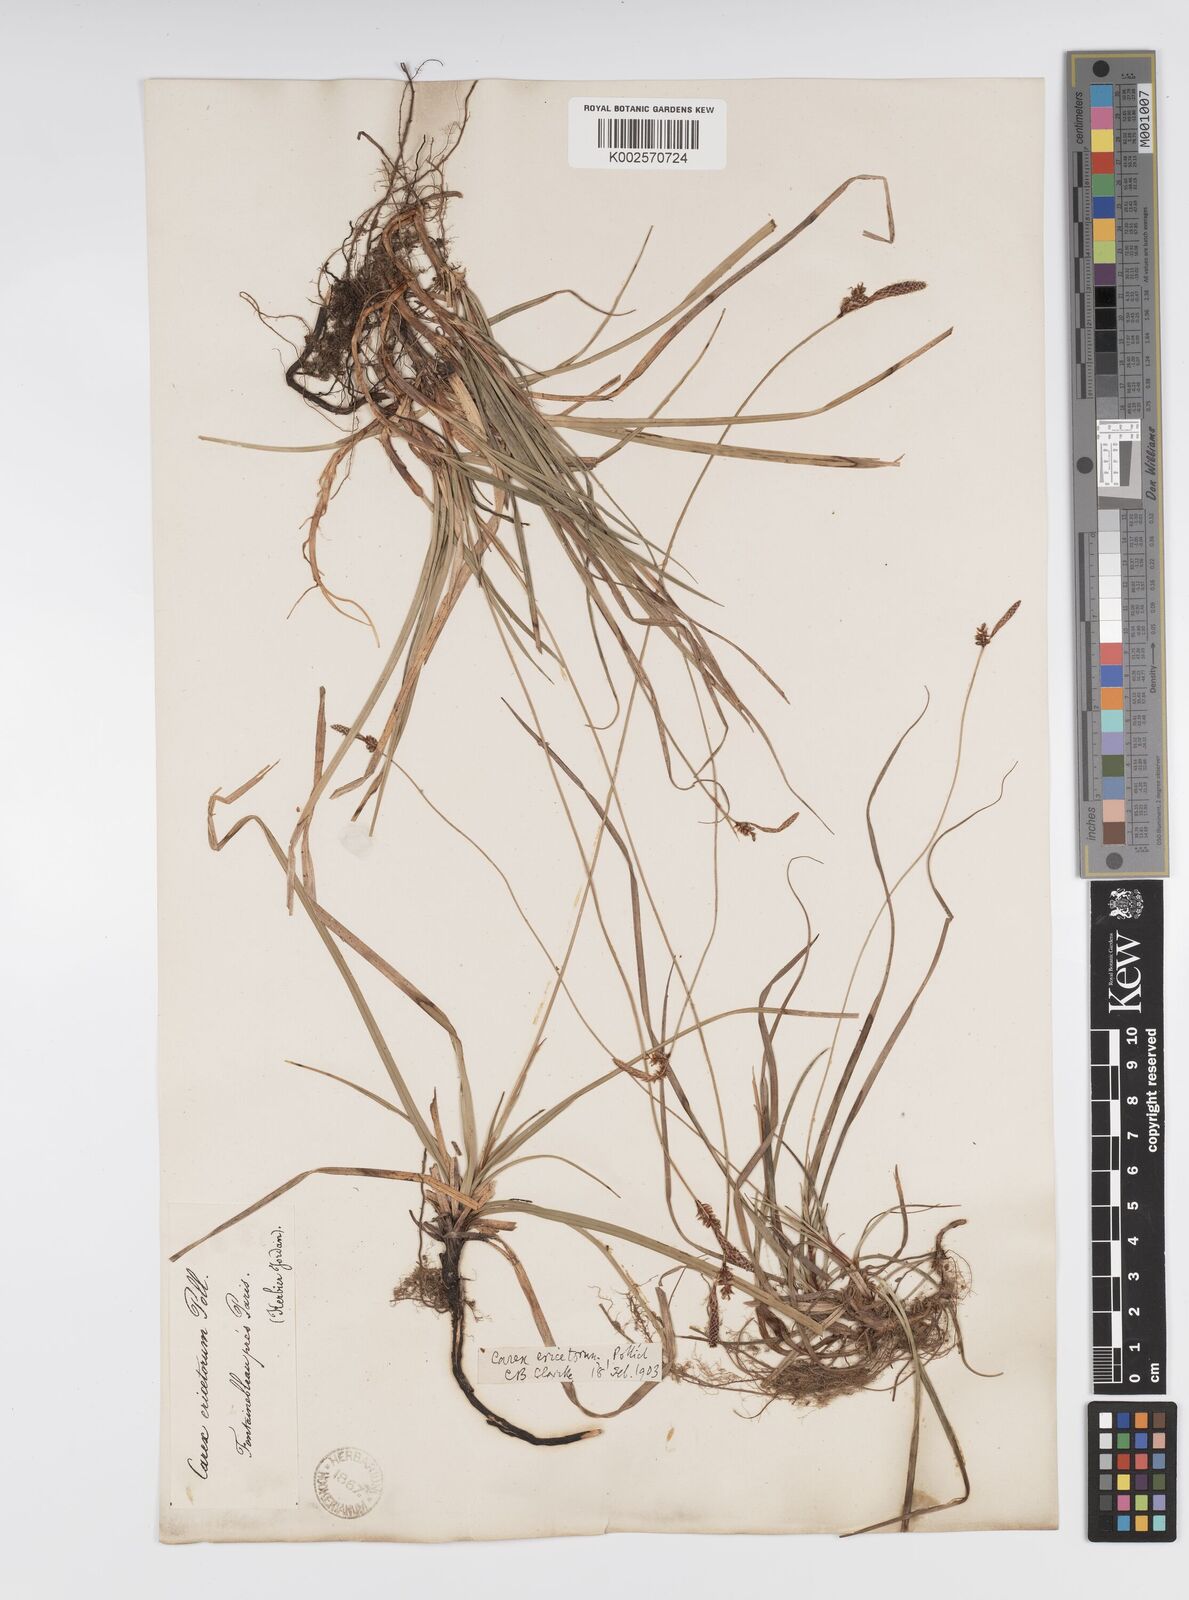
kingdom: Plantae
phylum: Tracheophyta
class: Liliopsida
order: Poales
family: Cyperaceae
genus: Carex
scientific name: Carex ericetorum
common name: Rare spring-sedge
